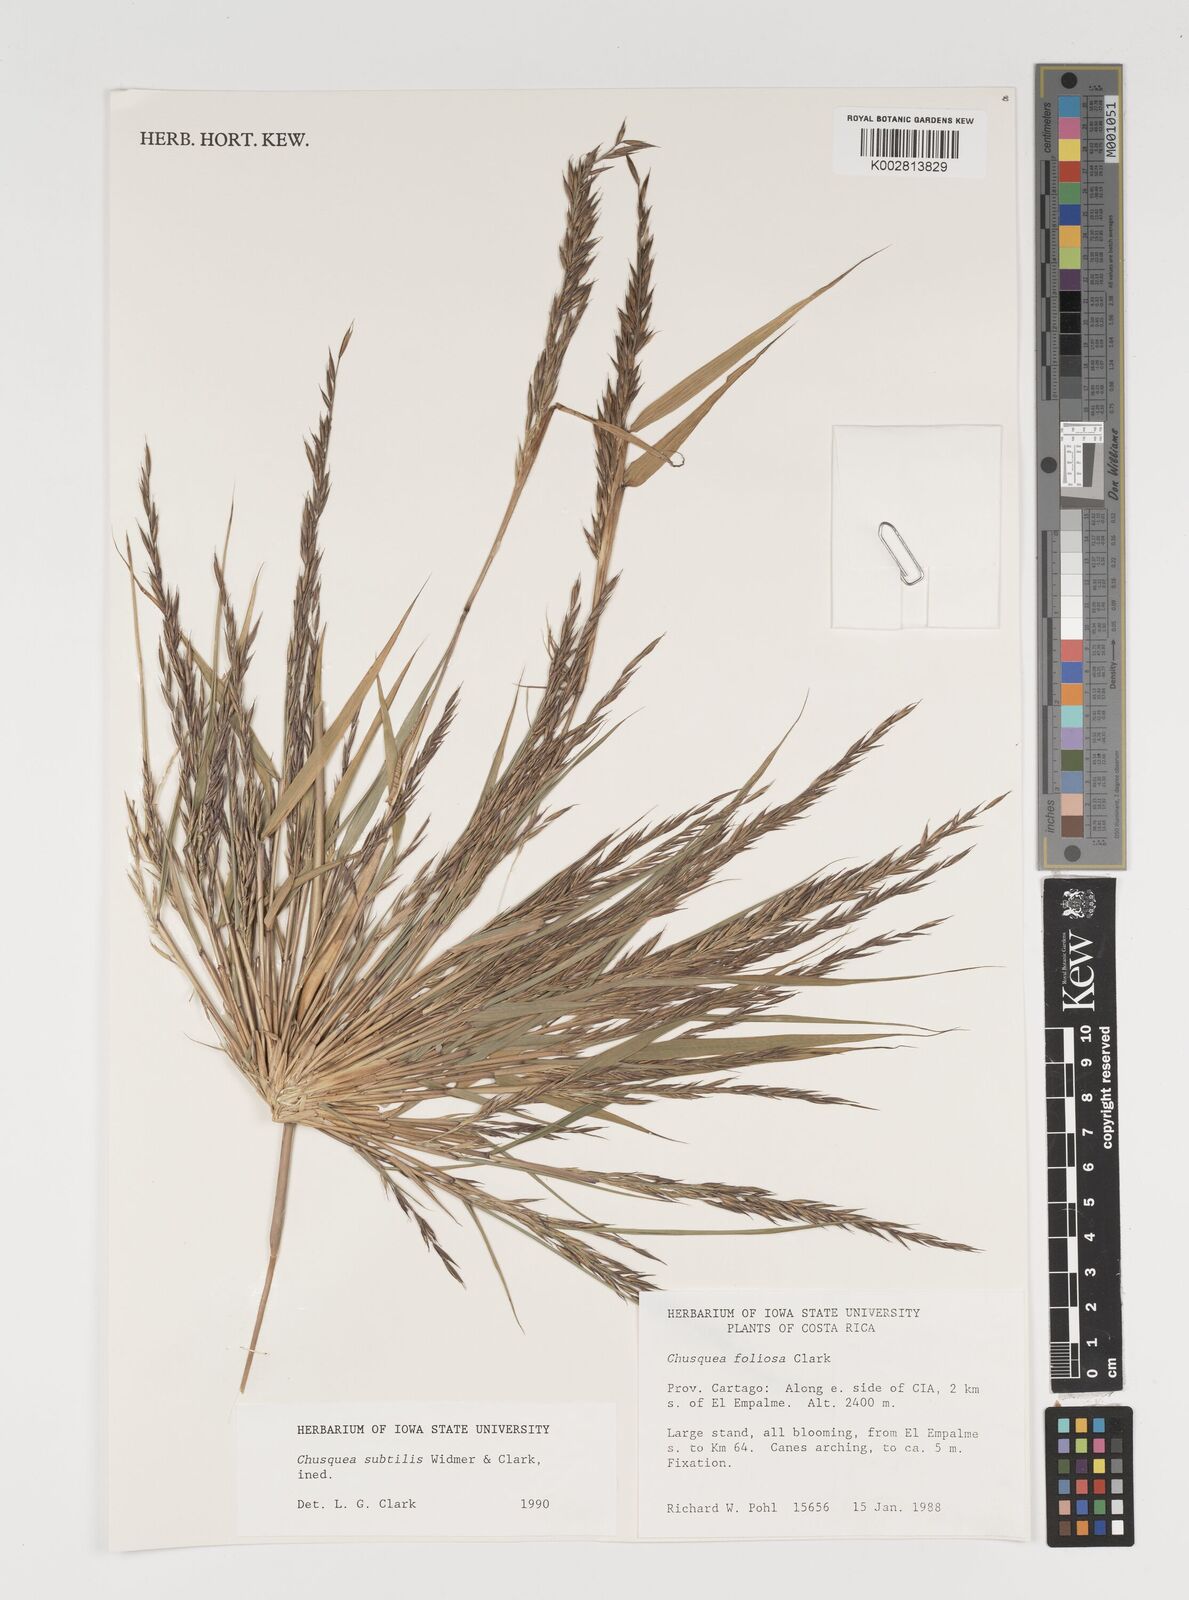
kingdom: Plantae
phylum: Tracheophyta
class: Liliopsida
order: Poales
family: Poaceae
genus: Chusquea
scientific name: Chusquea subtilis
